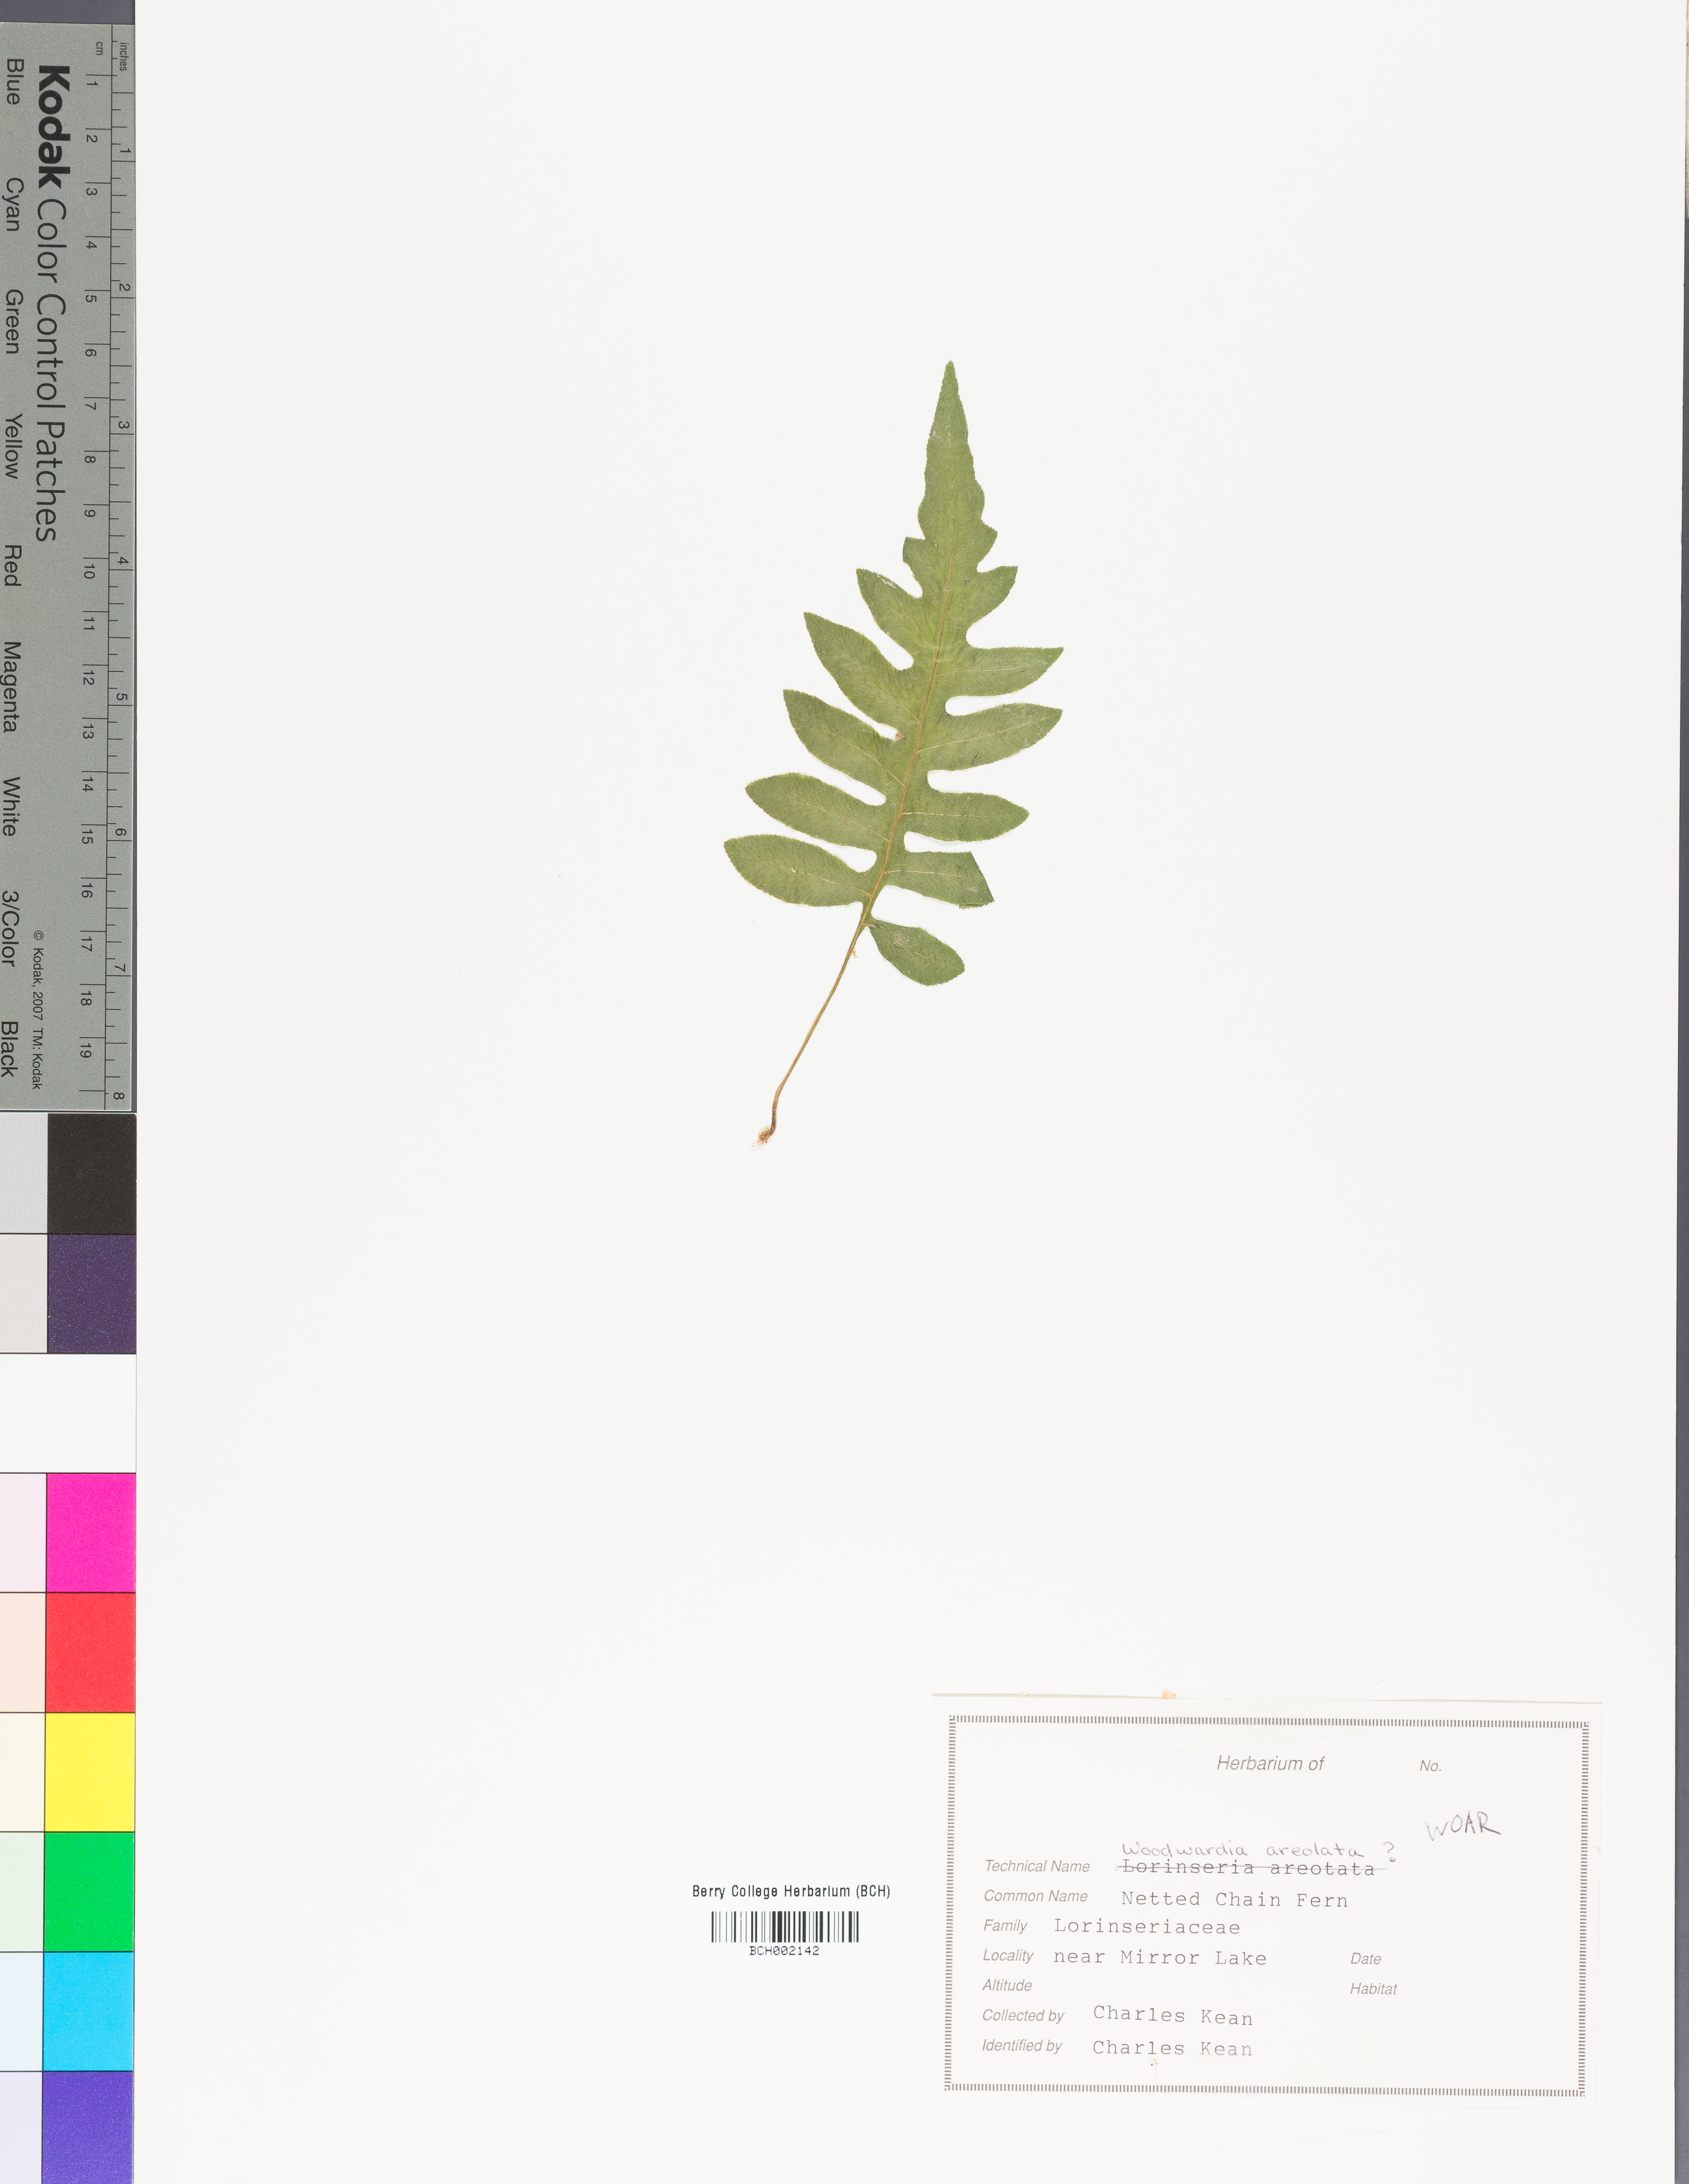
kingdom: Plantae
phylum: Tracheophyta
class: Polypodiopsida
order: Polypodiales
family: Blechnaceae
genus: Lorinseria
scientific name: Lorinseria areolata
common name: Dwarf chain fern
